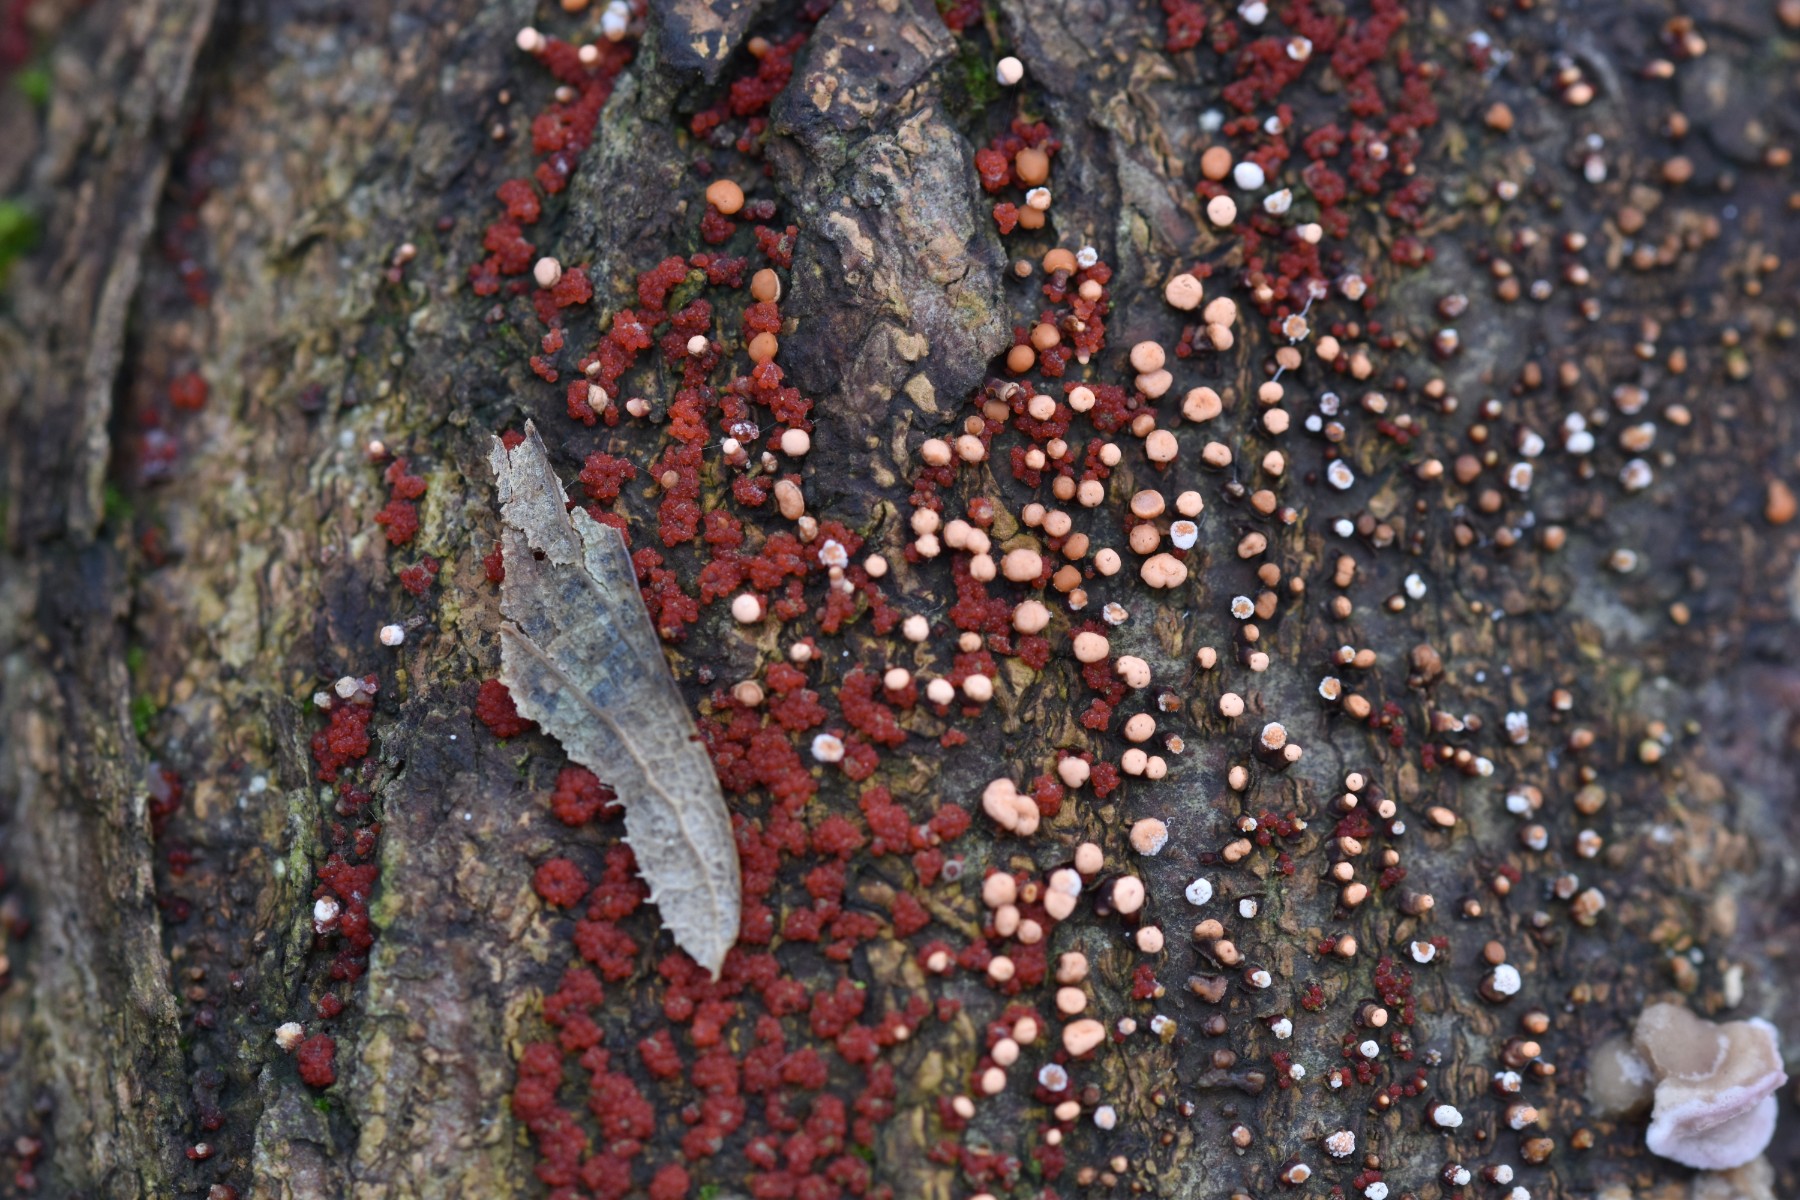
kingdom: Fungi
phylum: Ascomycota
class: Sordariomycetes
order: Hypocreales
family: Nectriaceae
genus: Nectria
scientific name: Nectria cinnabarina
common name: almindelig cinnobersvamp
